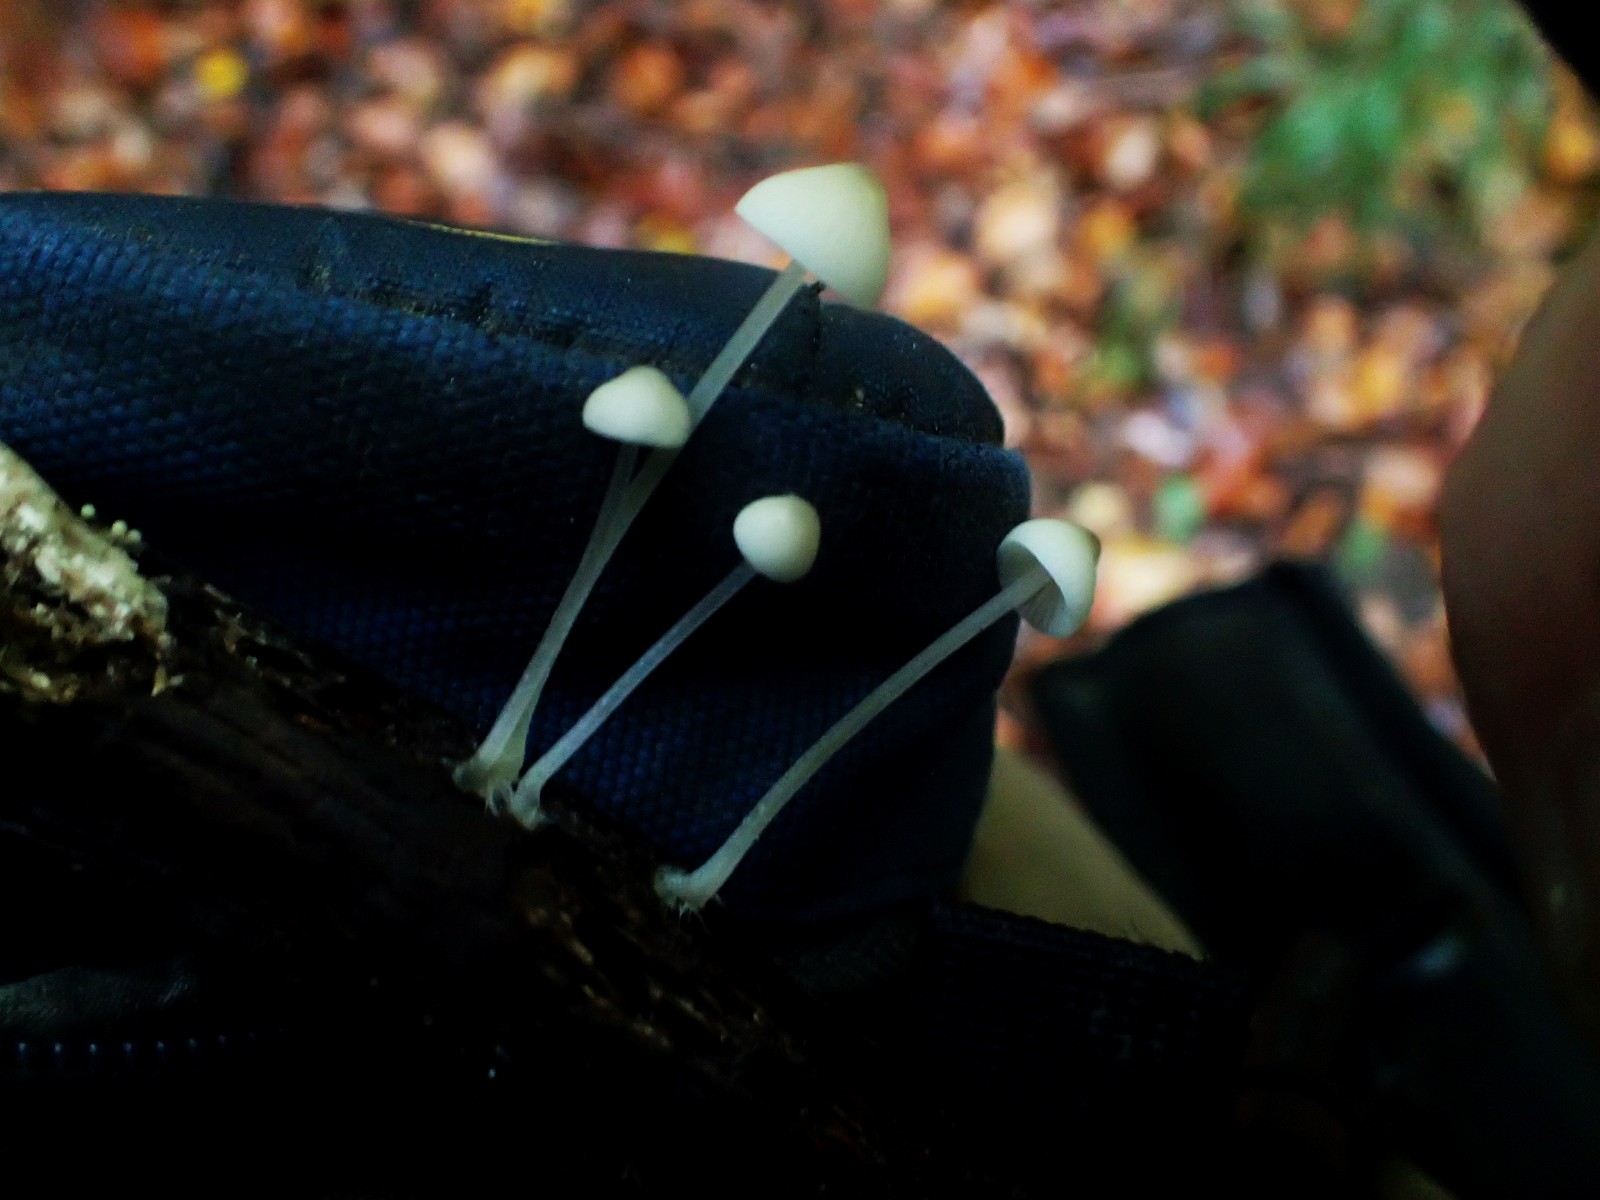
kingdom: Fungi
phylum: Basidiomycota
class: Agaricomycetes
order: Agaricales
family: Mycenaceae
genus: Mycena
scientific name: Mycena
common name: huesvamp
